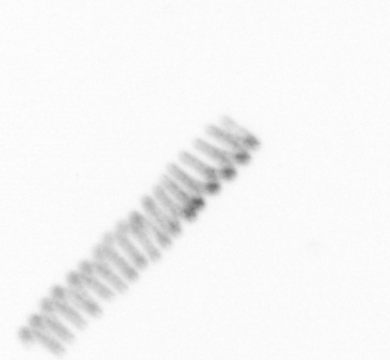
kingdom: Chromista
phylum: Ochrophyta
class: Bacillariophyceae
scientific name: Bacillariophyceae
